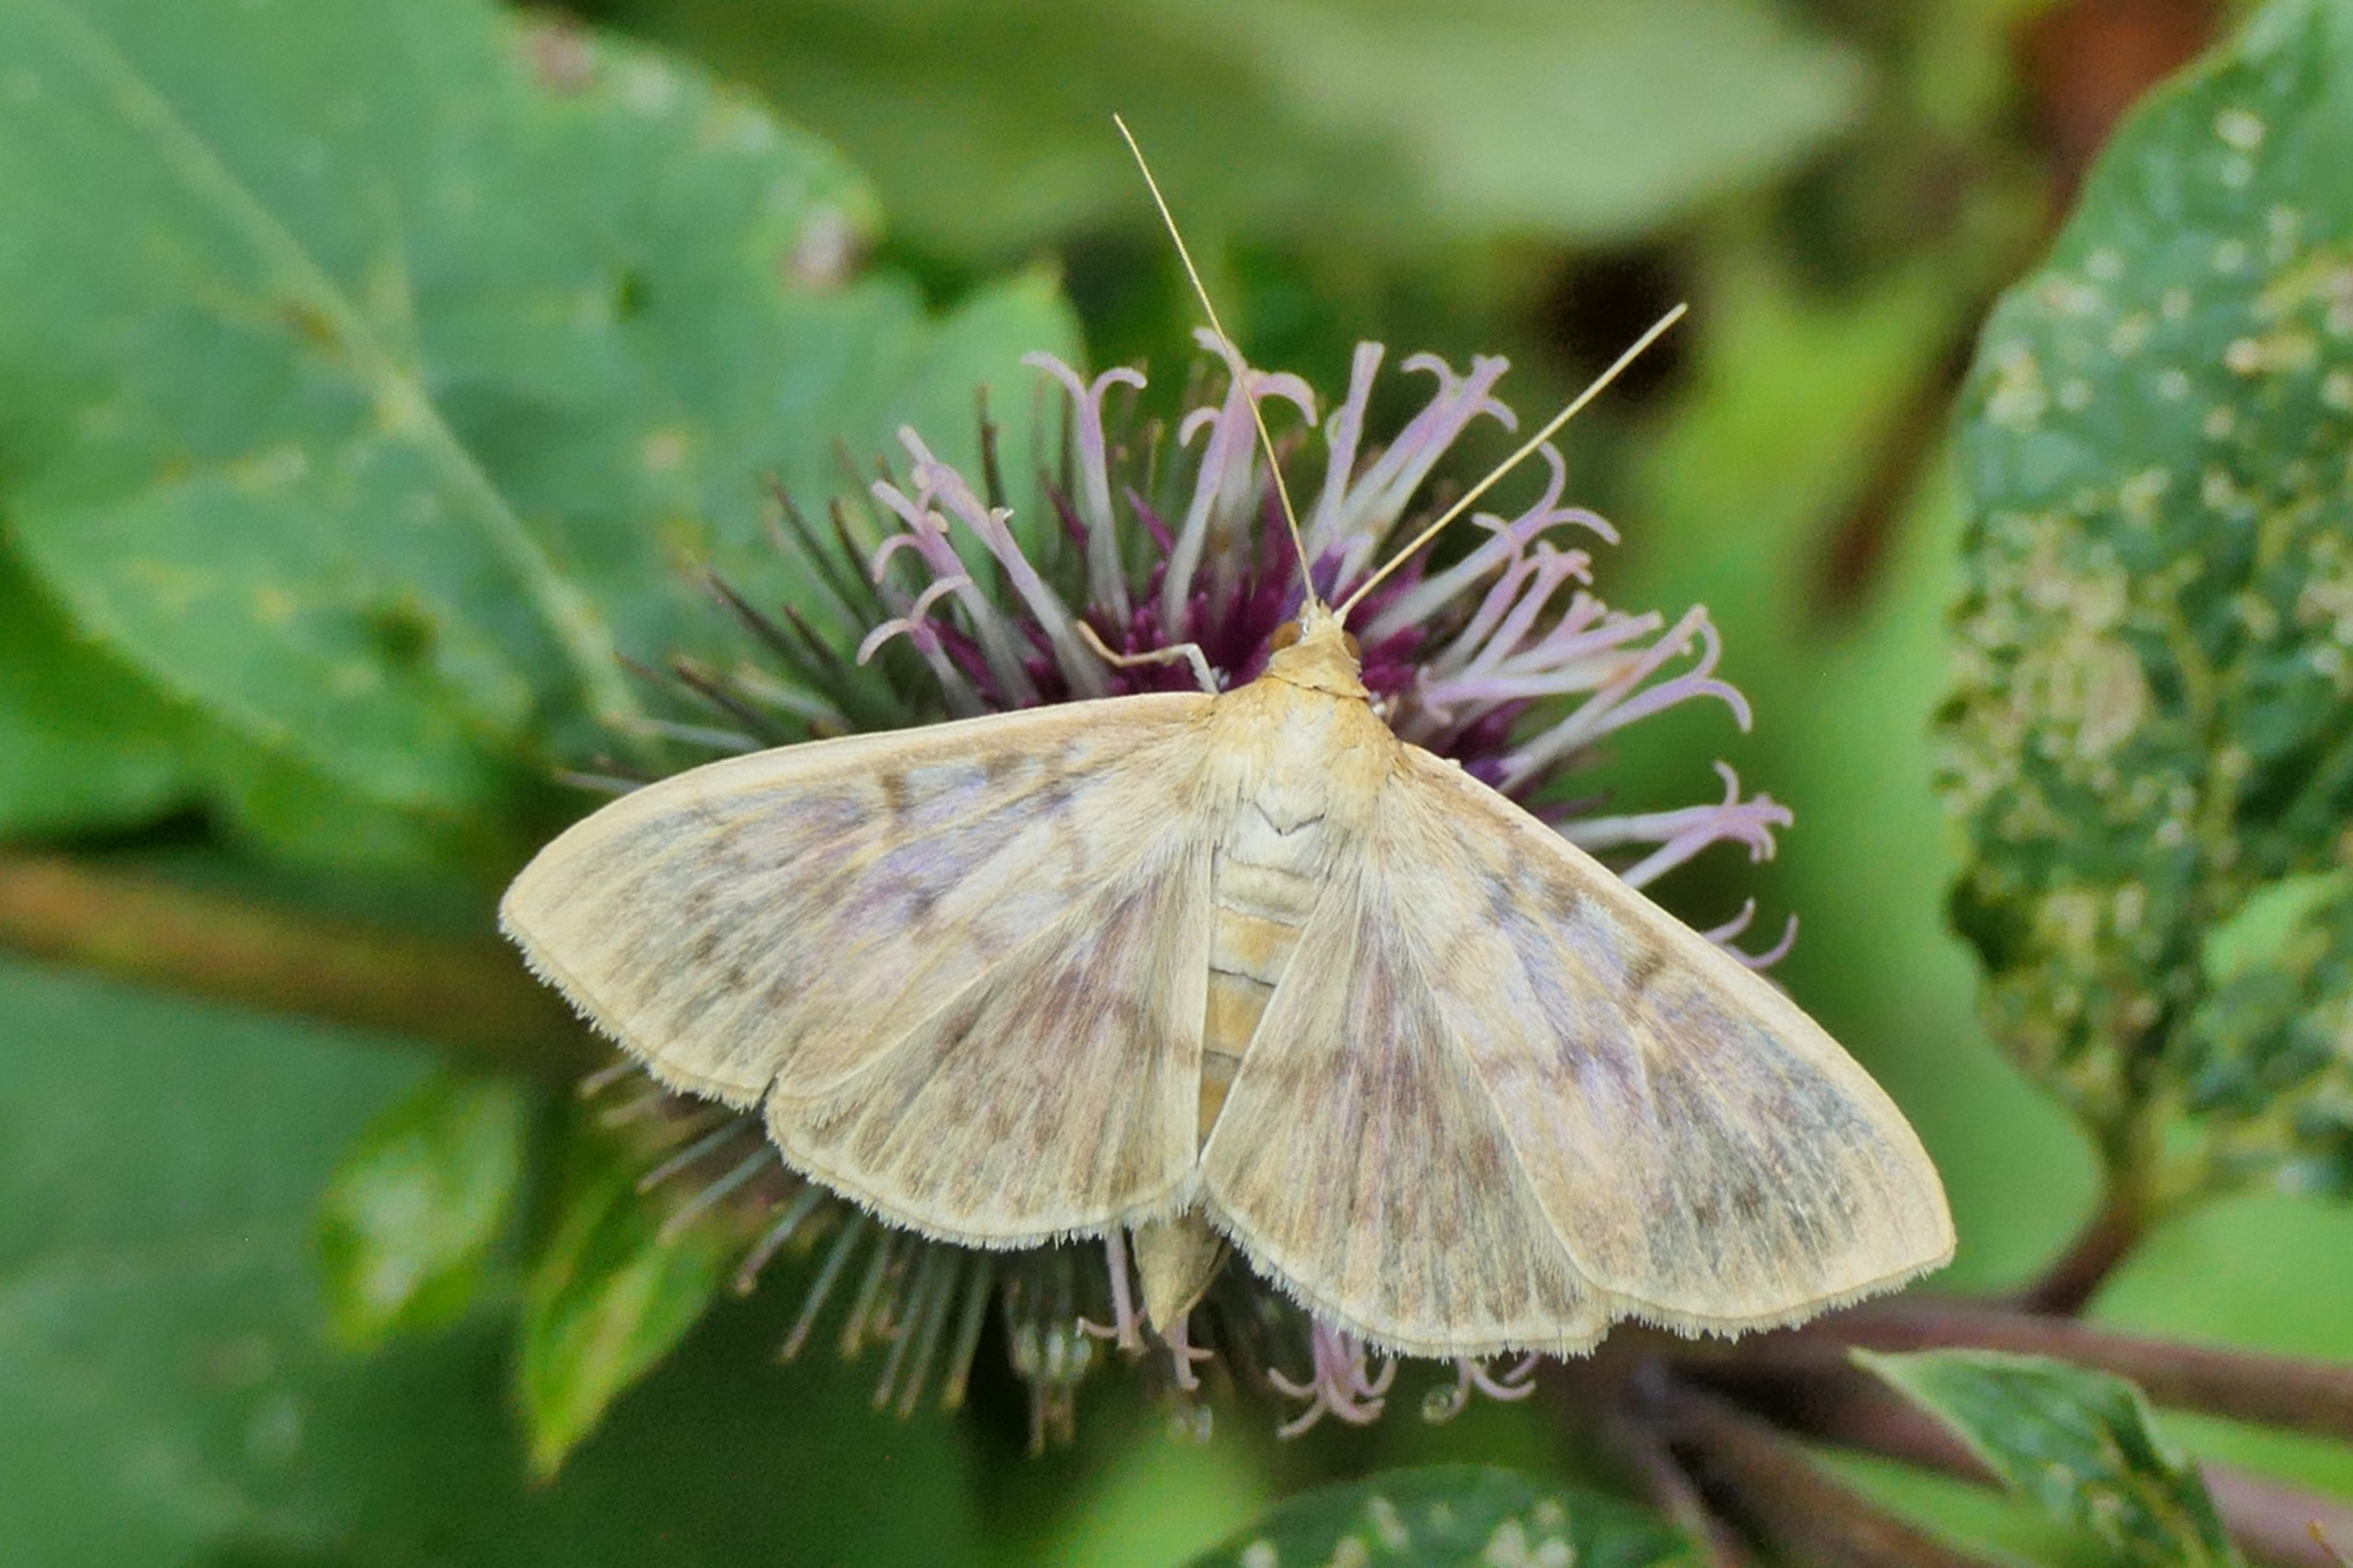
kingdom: Animalia
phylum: Arthropoda
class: Insecta
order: Lepidoptera
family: Crambidae
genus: Patania
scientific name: Patania ruralis
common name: Perlemorshalvmøl
